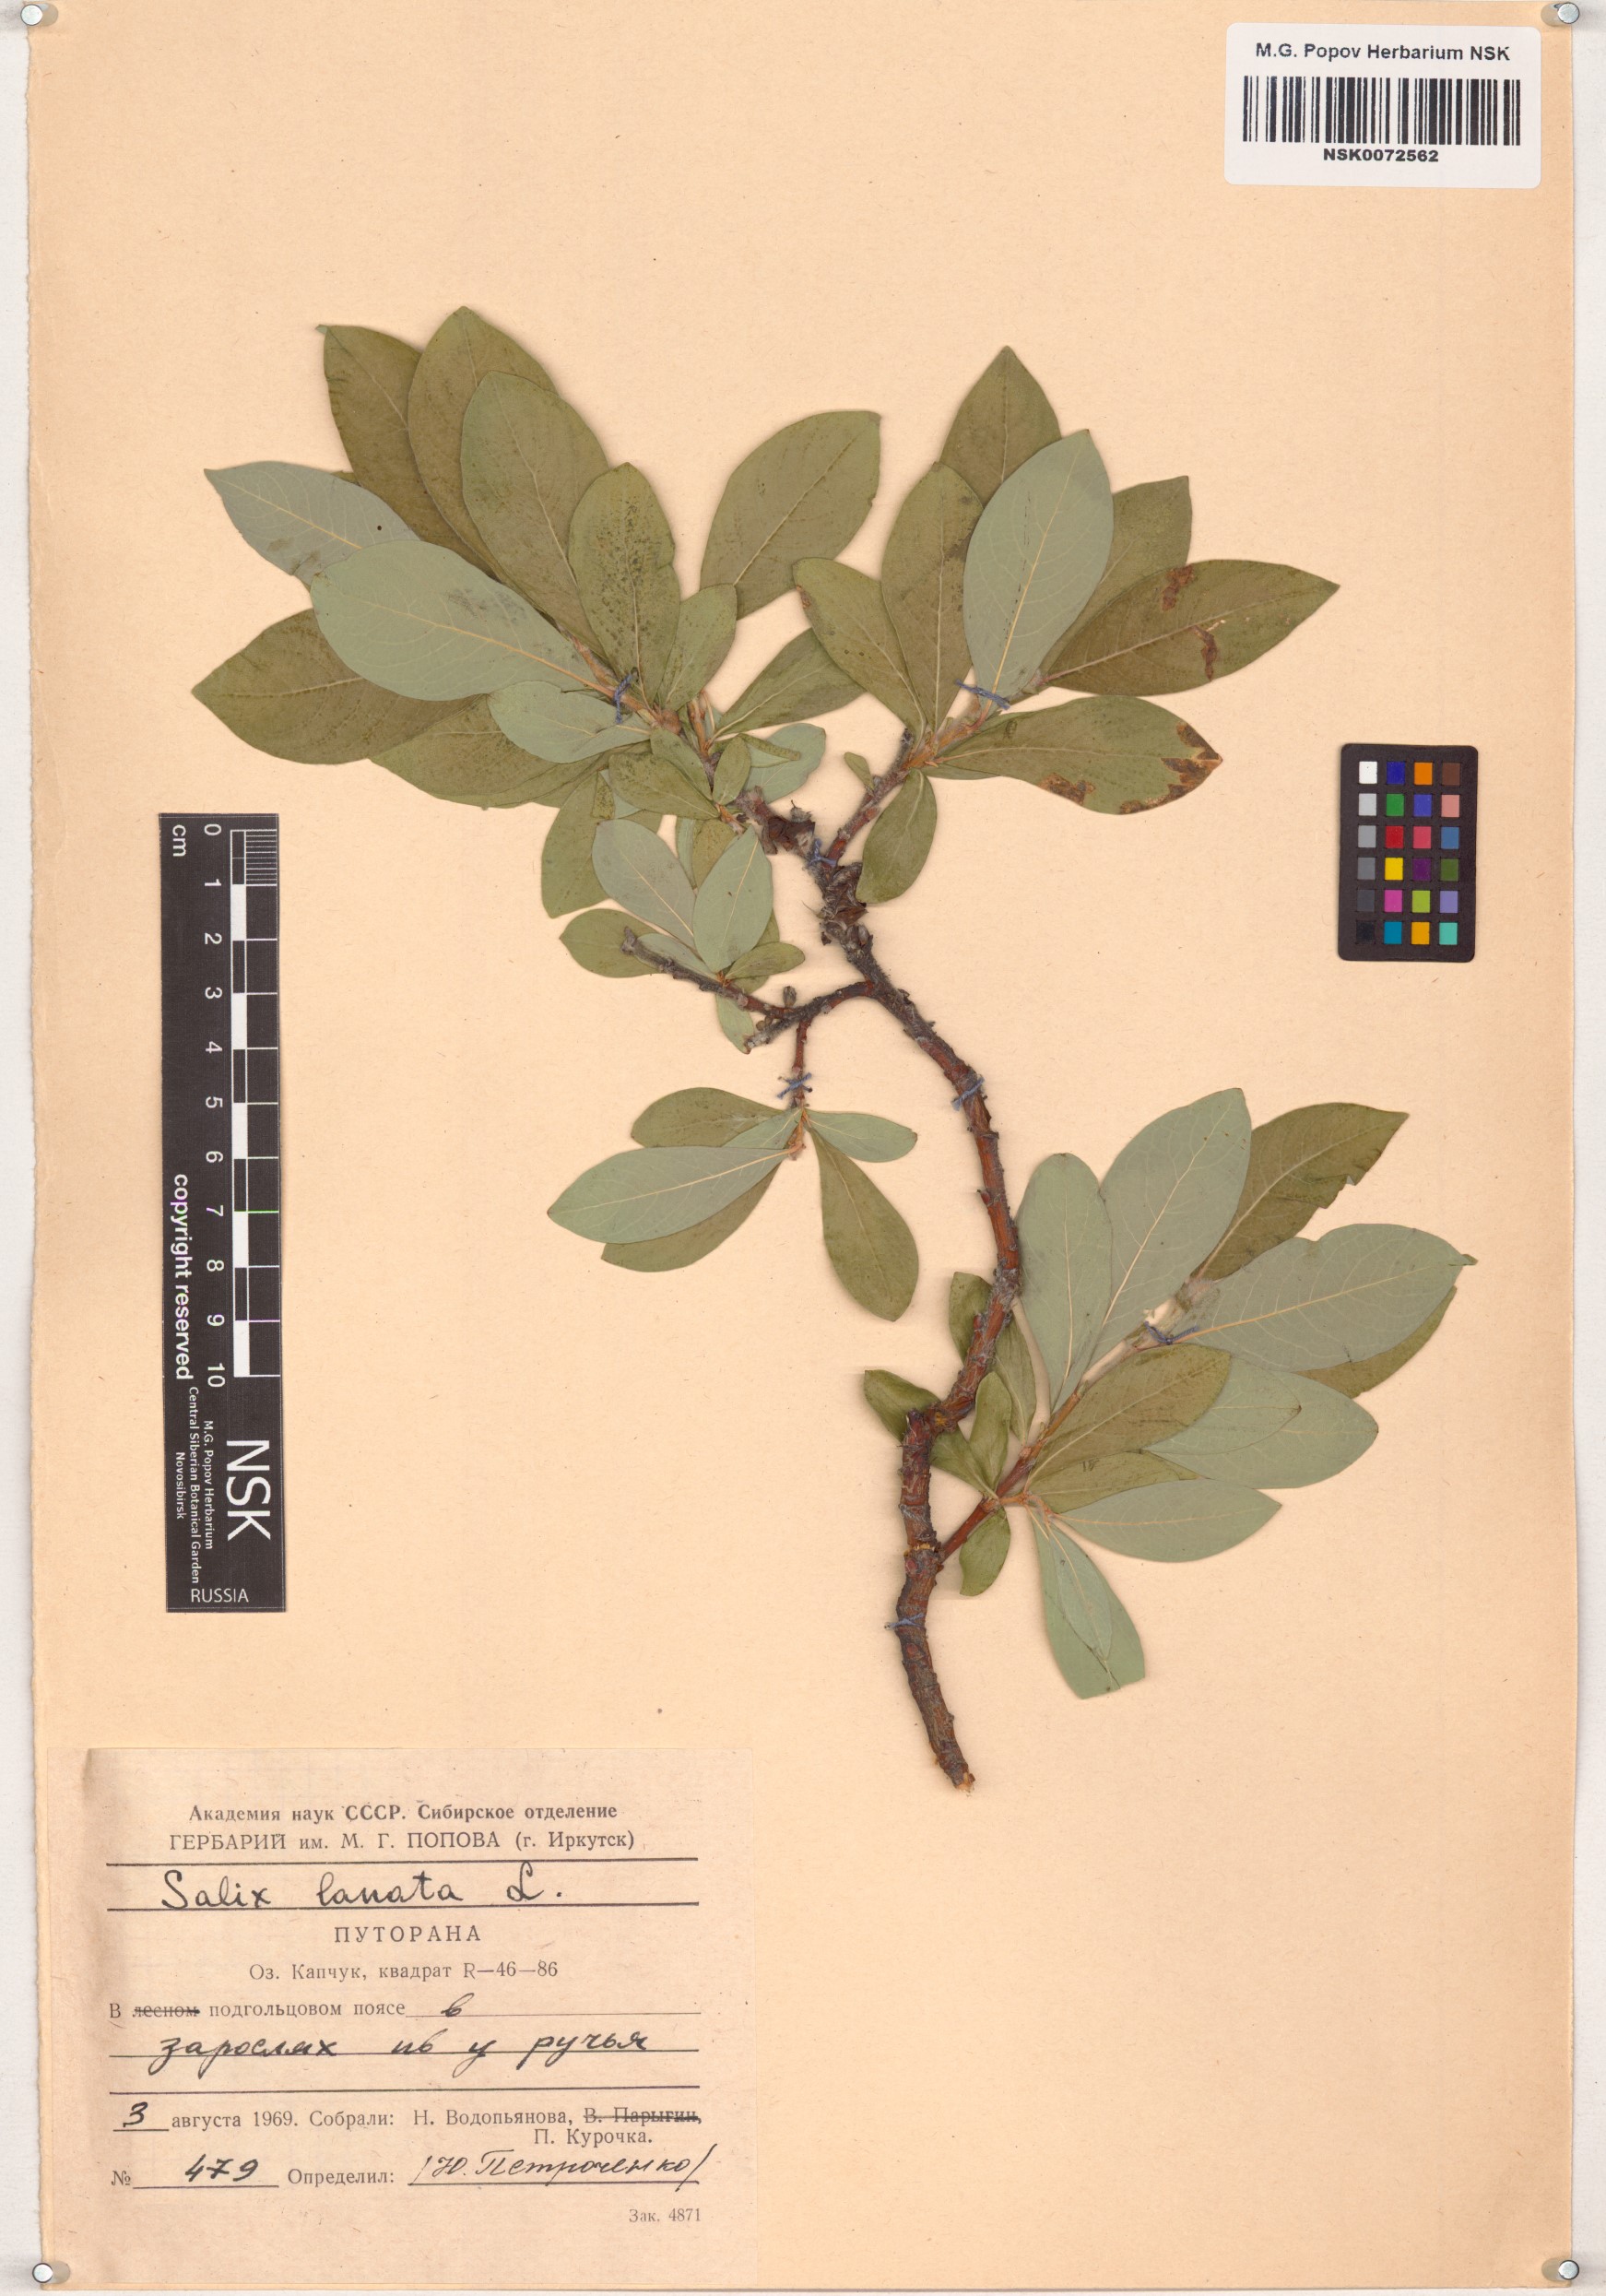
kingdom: Plantae
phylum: Tracheophyta
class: Magnoliopsida
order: Malpighiales
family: Salicaceae
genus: Salix
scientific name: Salix lanata
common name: Woolly willow
